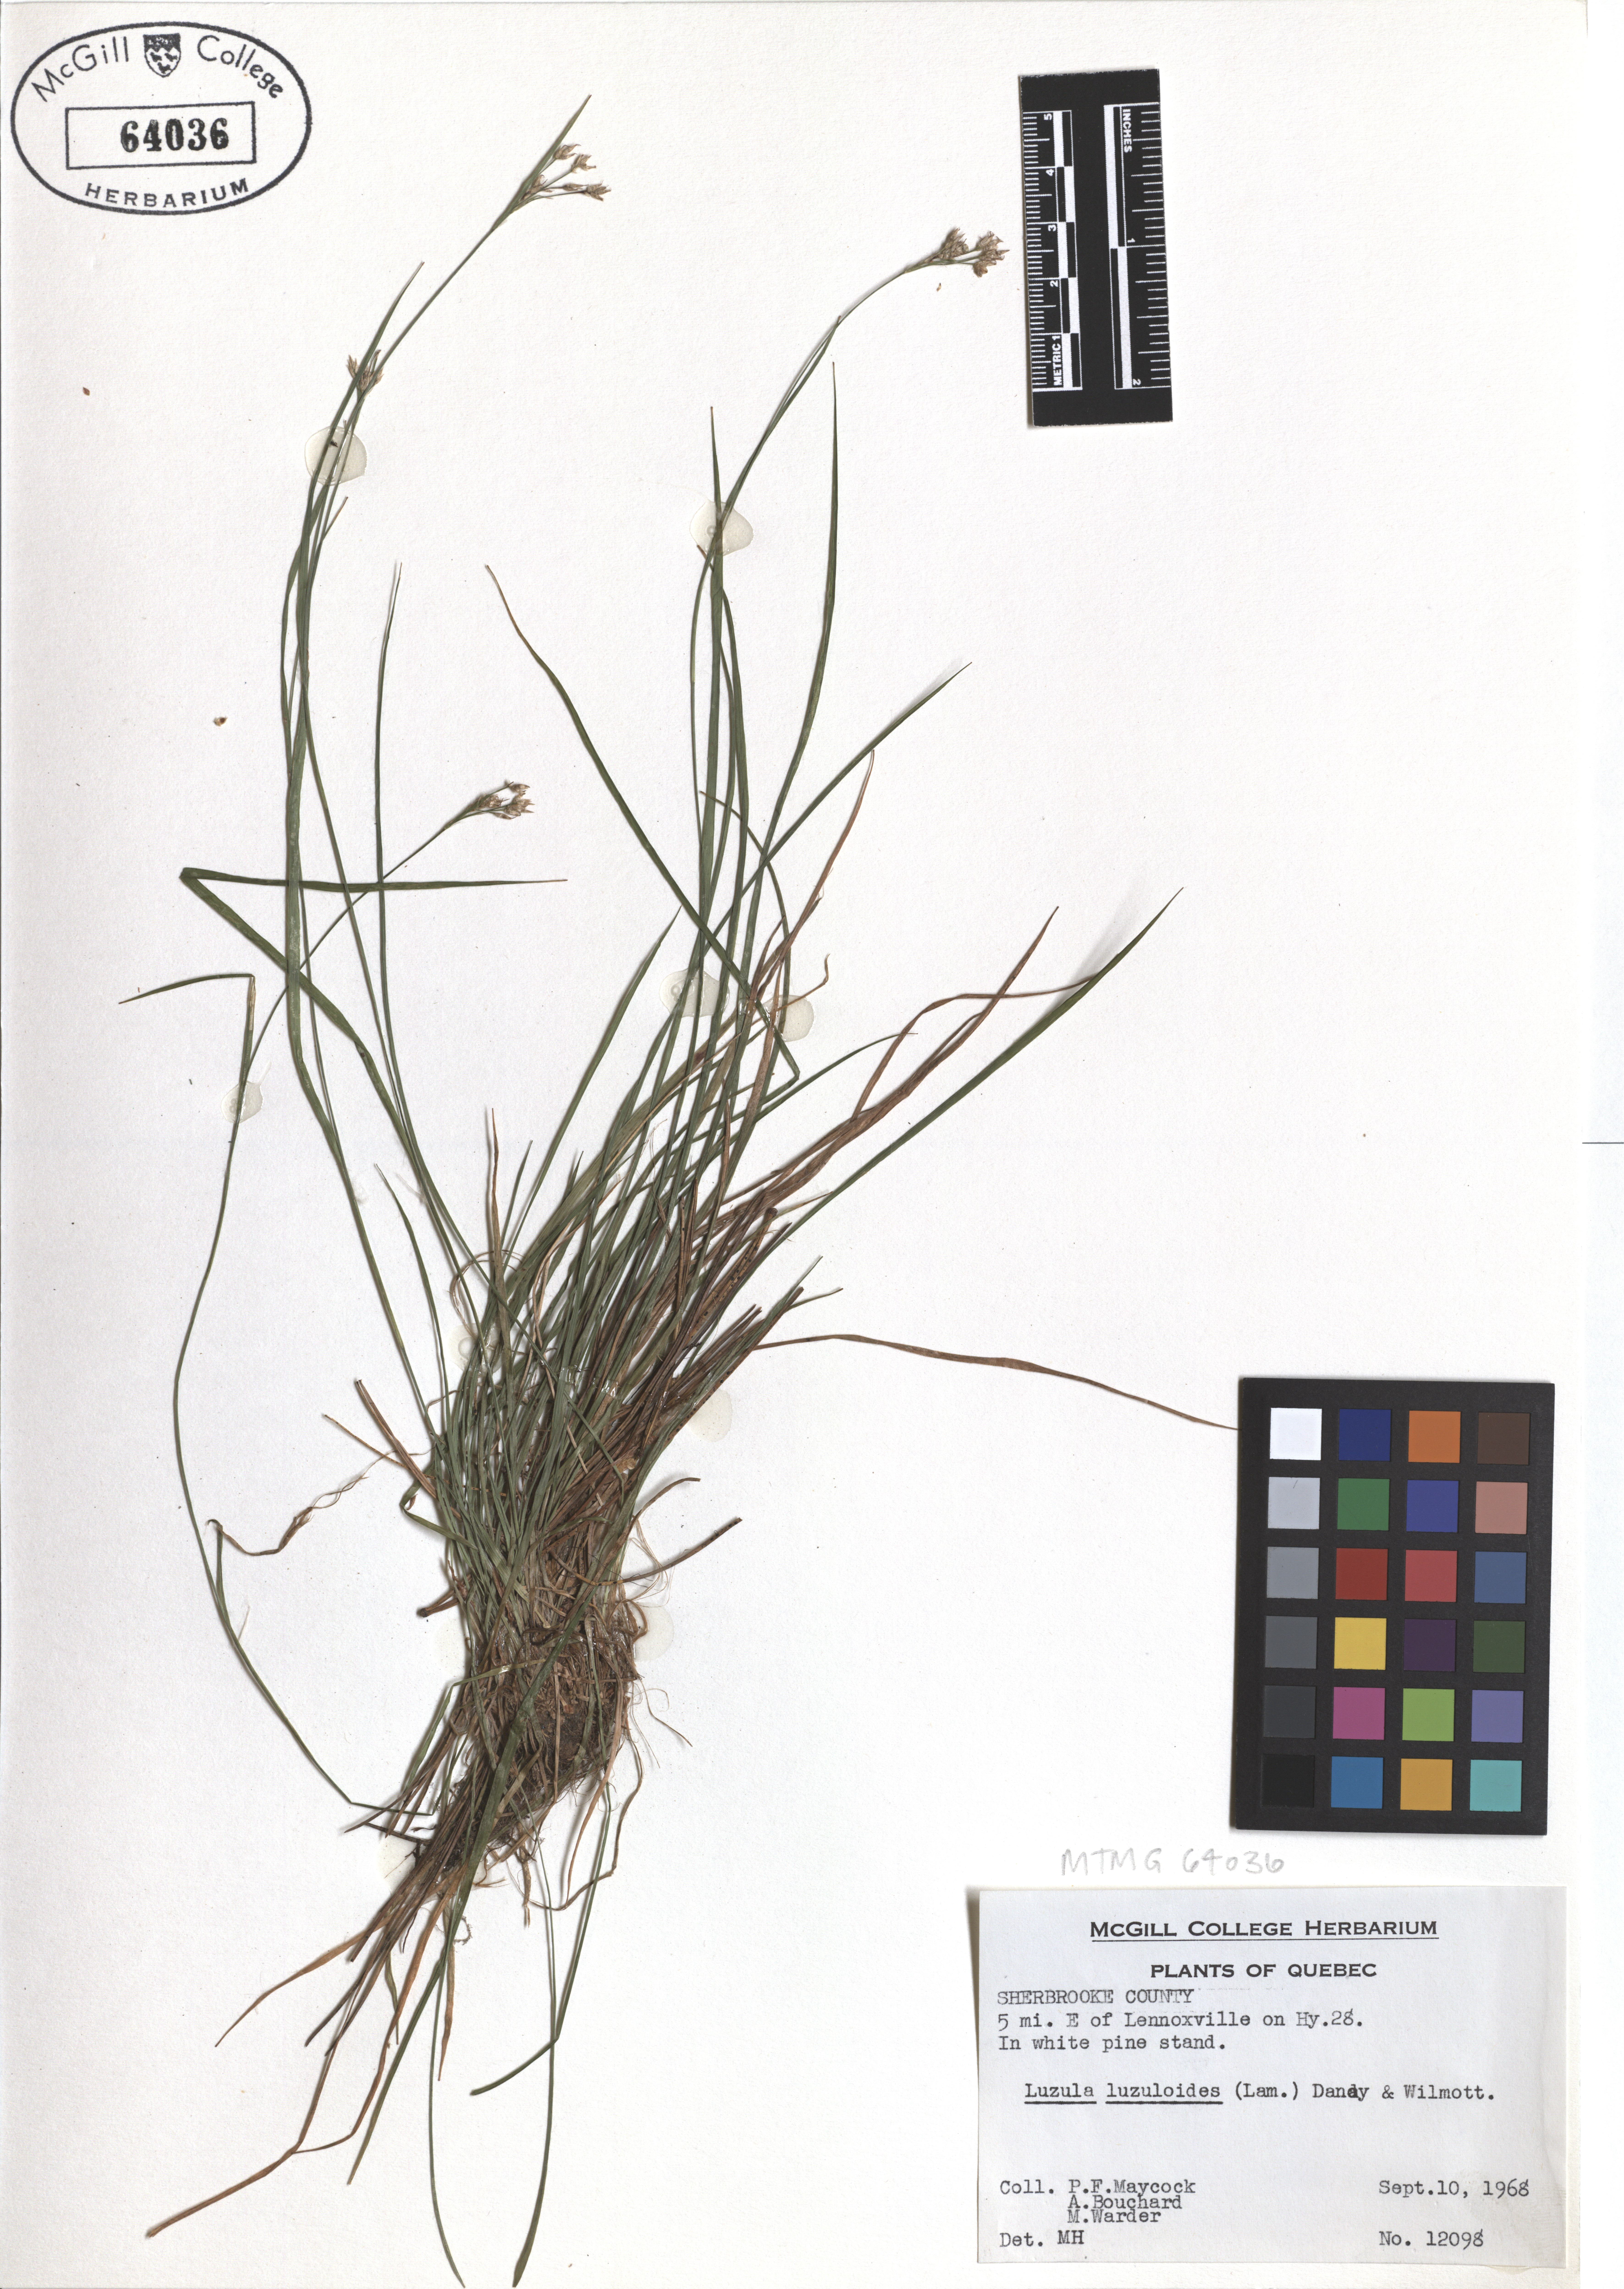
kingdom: Plantae
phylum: Tracheophyta
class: Liliopsida
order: Poales
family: Juncaceae
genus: Luzula
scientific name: Luzula luzuloides
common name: White wood-rush
